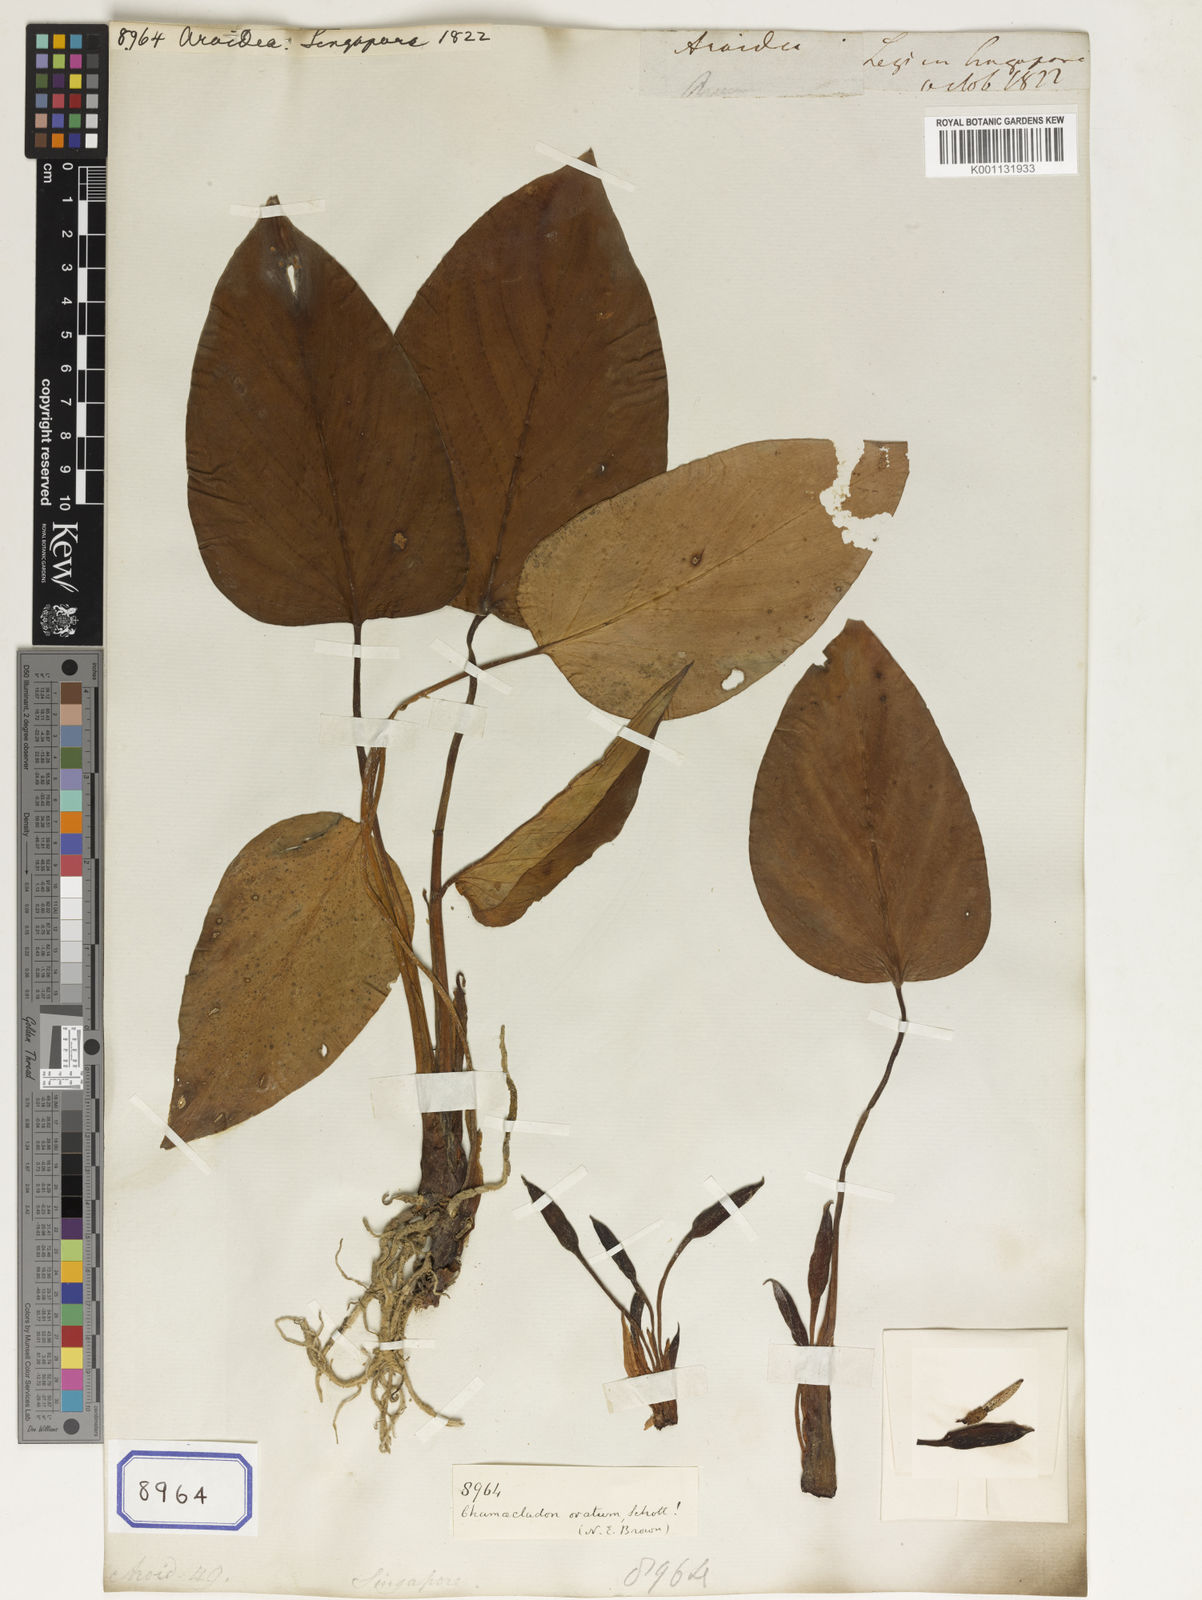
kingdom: Plantae
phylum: Tracheophyta
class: Liliopsida
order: Alismatales
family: Araceae
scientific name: Araceae
